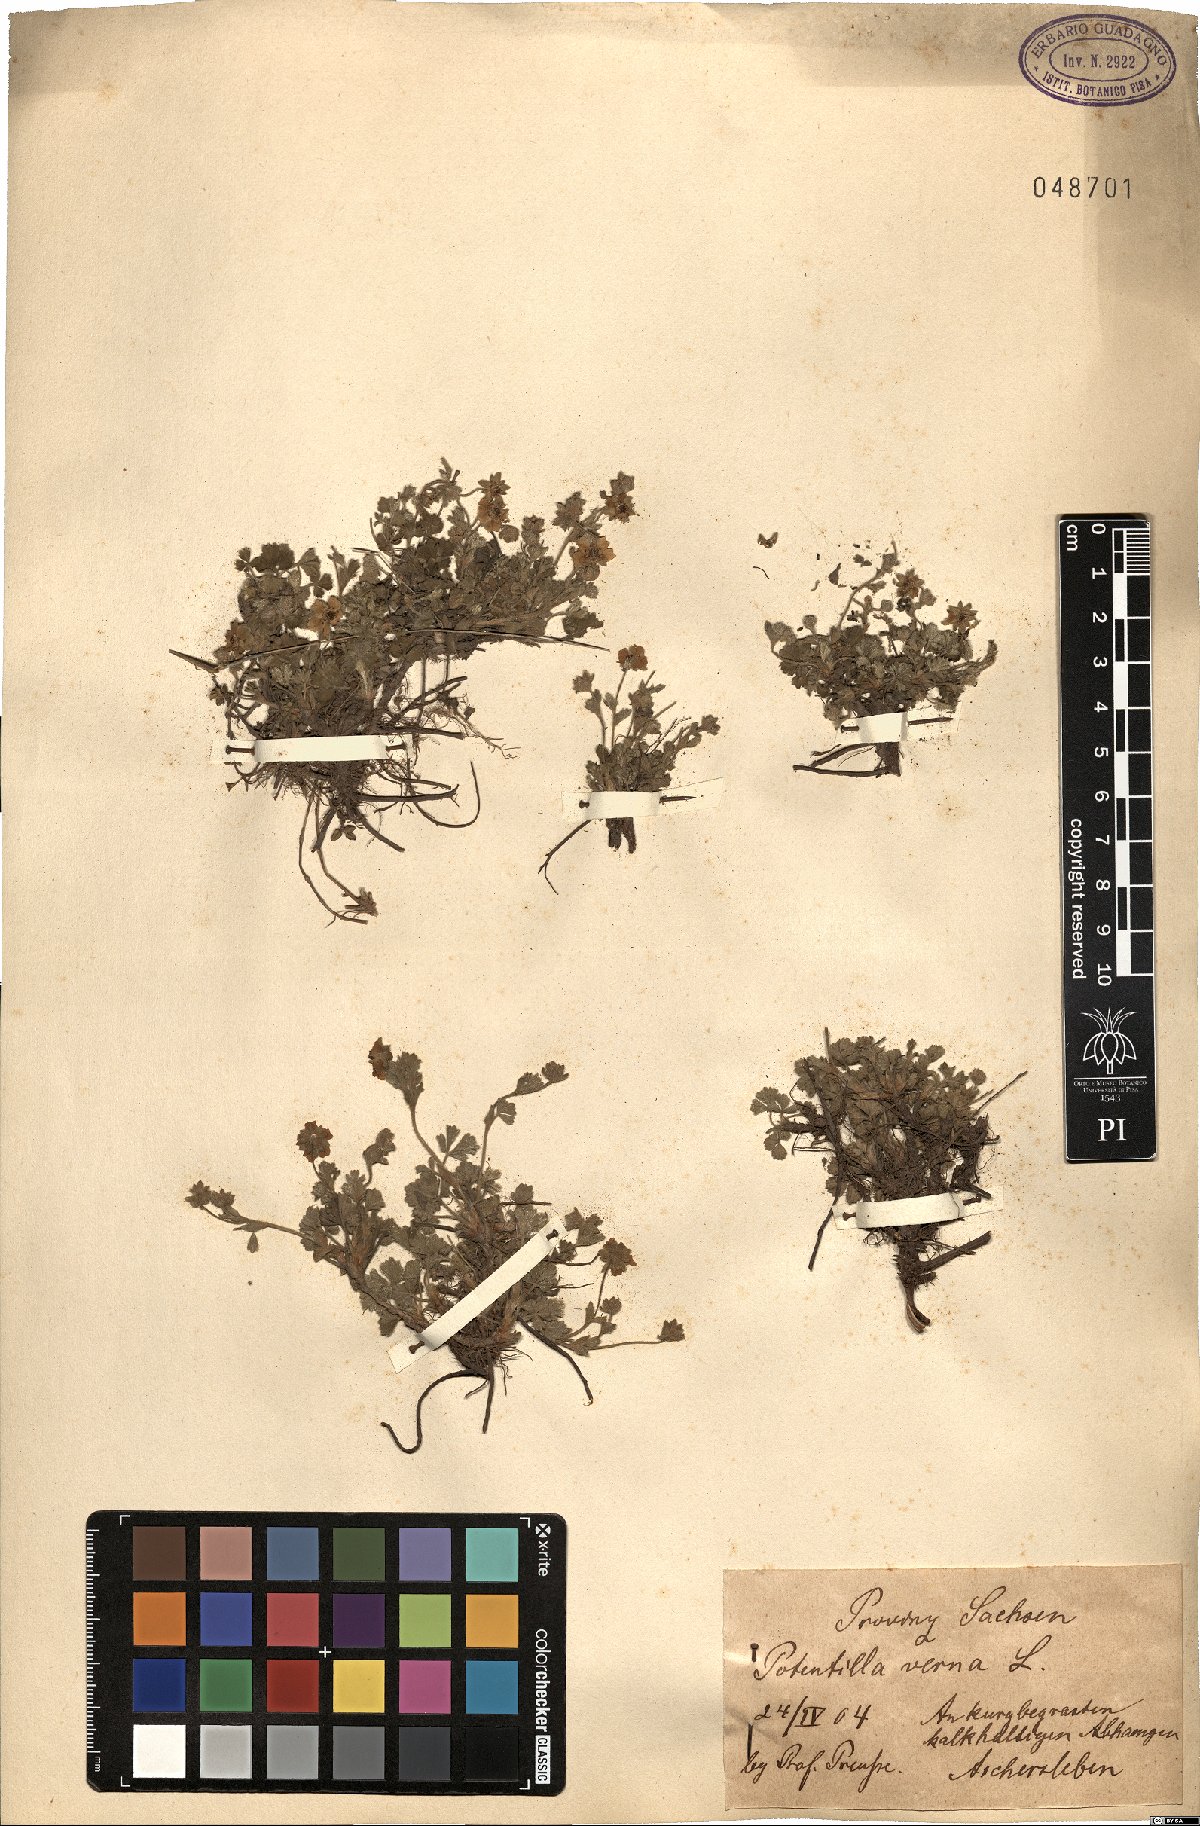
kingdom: Plantae
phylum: Tracheophyta
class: Magnoliopsida
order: Rosales
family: Rosaceae
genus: Potentilla
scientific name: Potentilla verna
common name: Spring cinquefoil
